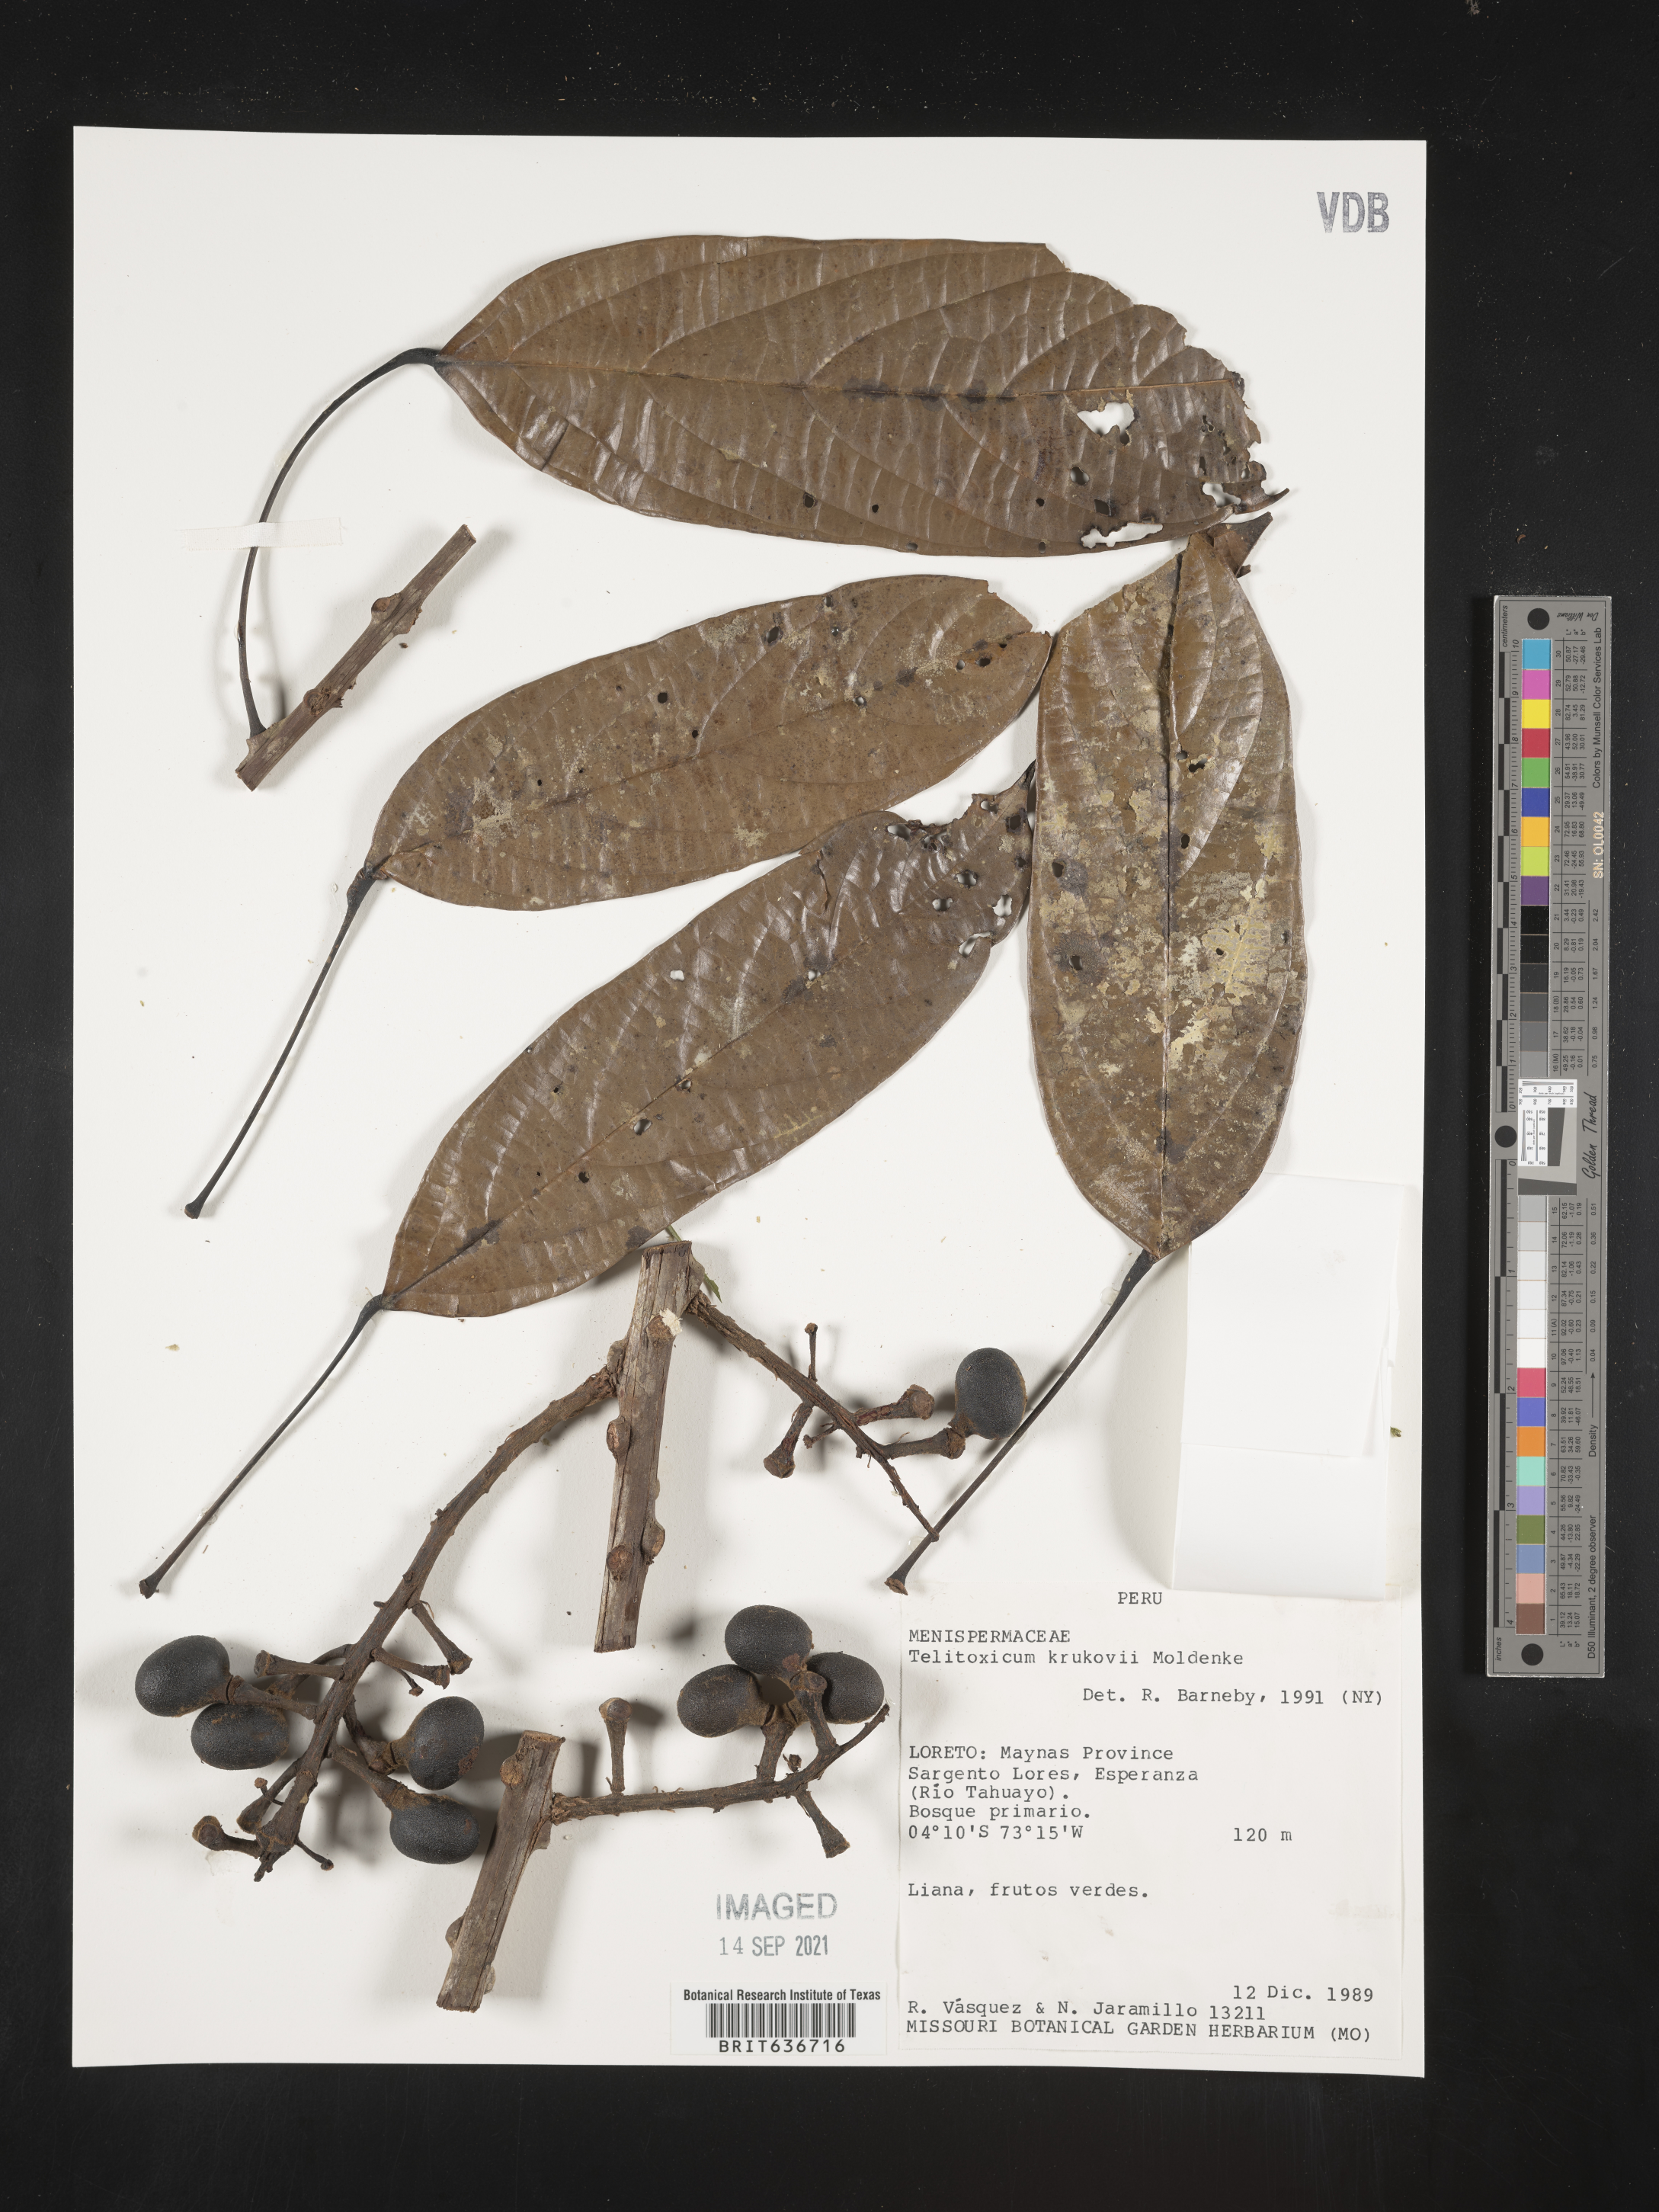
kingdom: Plantae
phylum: Tracheophyta
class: Magnoliopsida
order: Ranunculales
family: Menispermaceae
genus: Telitoxicum
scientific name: Telitoxicum krukovii
